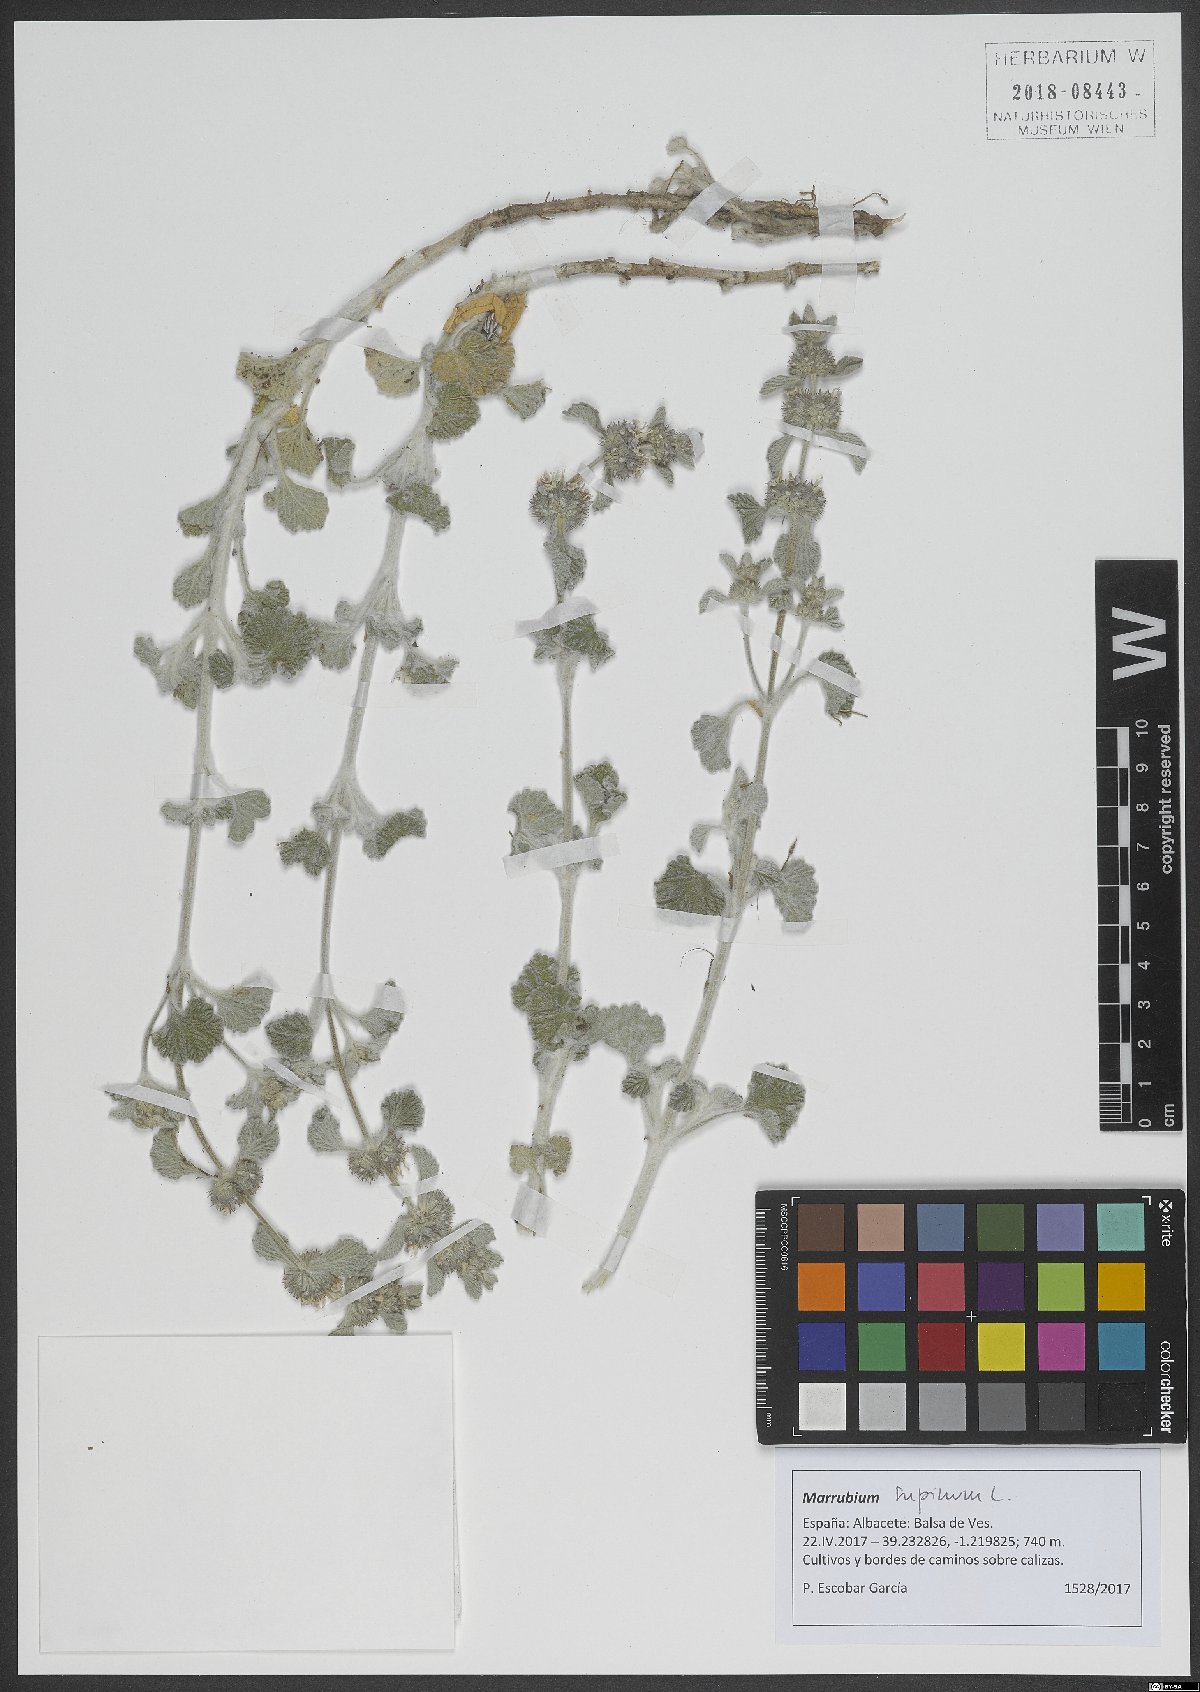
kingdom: Plantae
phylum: Tracheophyta
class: Magnoliopsida
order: Lamiales
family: Lamiaceae
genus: Marrubium
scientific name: Marrubium supinum
